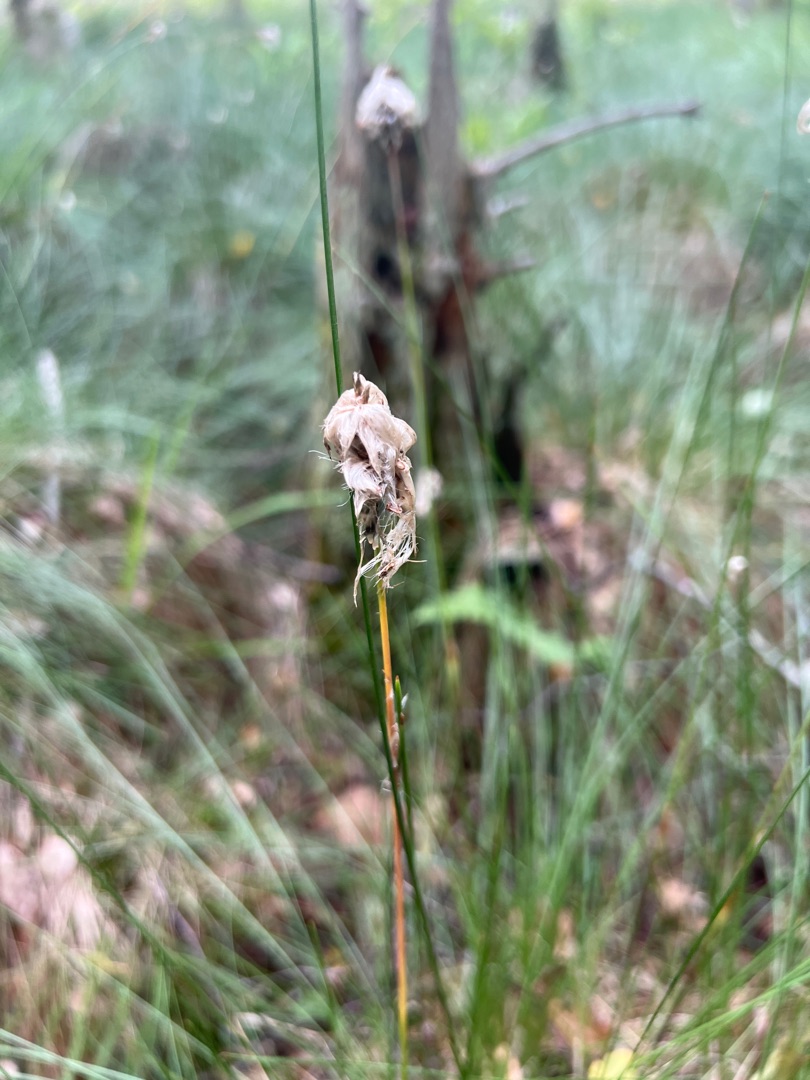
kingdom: Plantae
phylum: Tracheophyta
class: Liliopsida
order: Poales
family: Cyperaceae
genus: Eriophorum
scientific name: Eriophorum vaginatum
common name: Tue-kæruld
